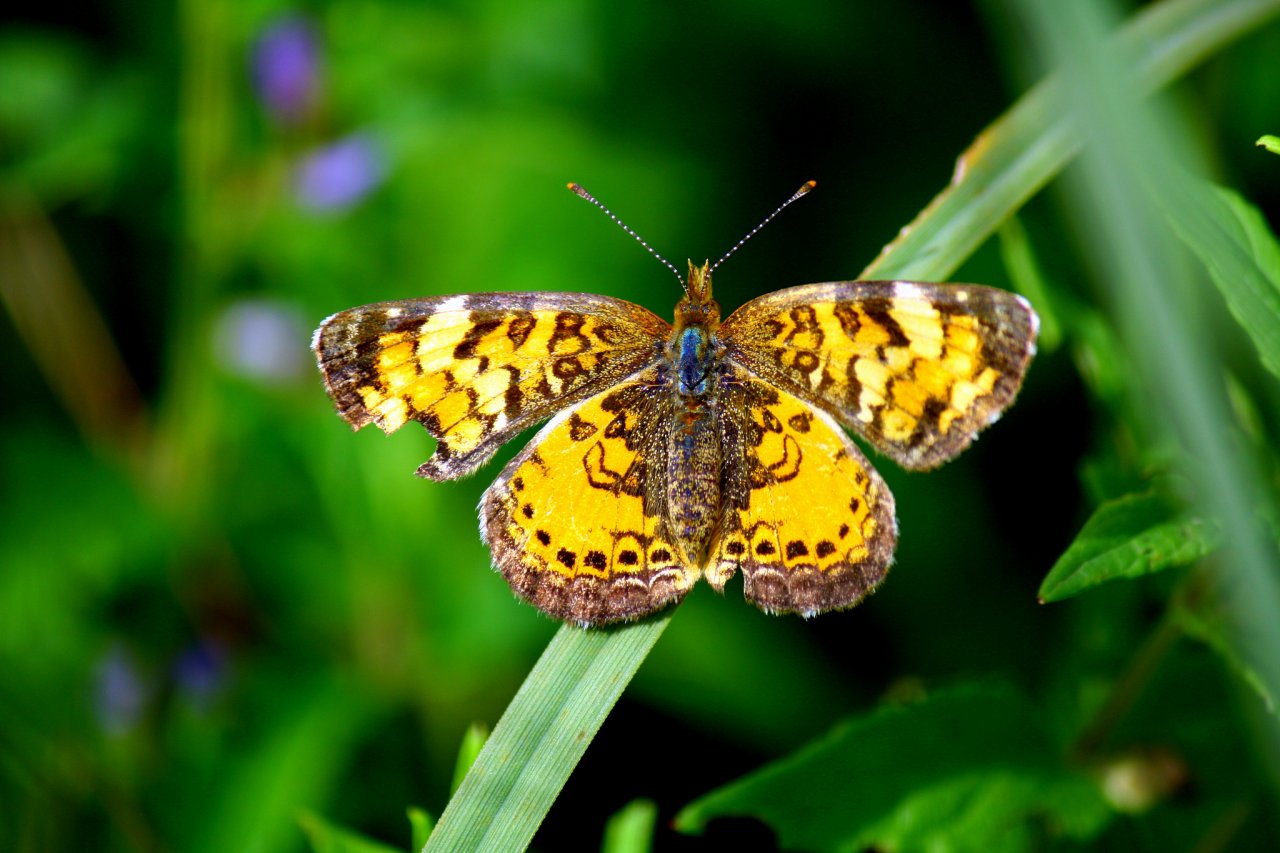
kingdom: Animalia
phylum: Arthropoda
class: Insecta
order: Lepidoptera
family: Nymphalidae
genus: Phyciodes
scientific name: Phyciodes tharos
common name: Northern Crescent
